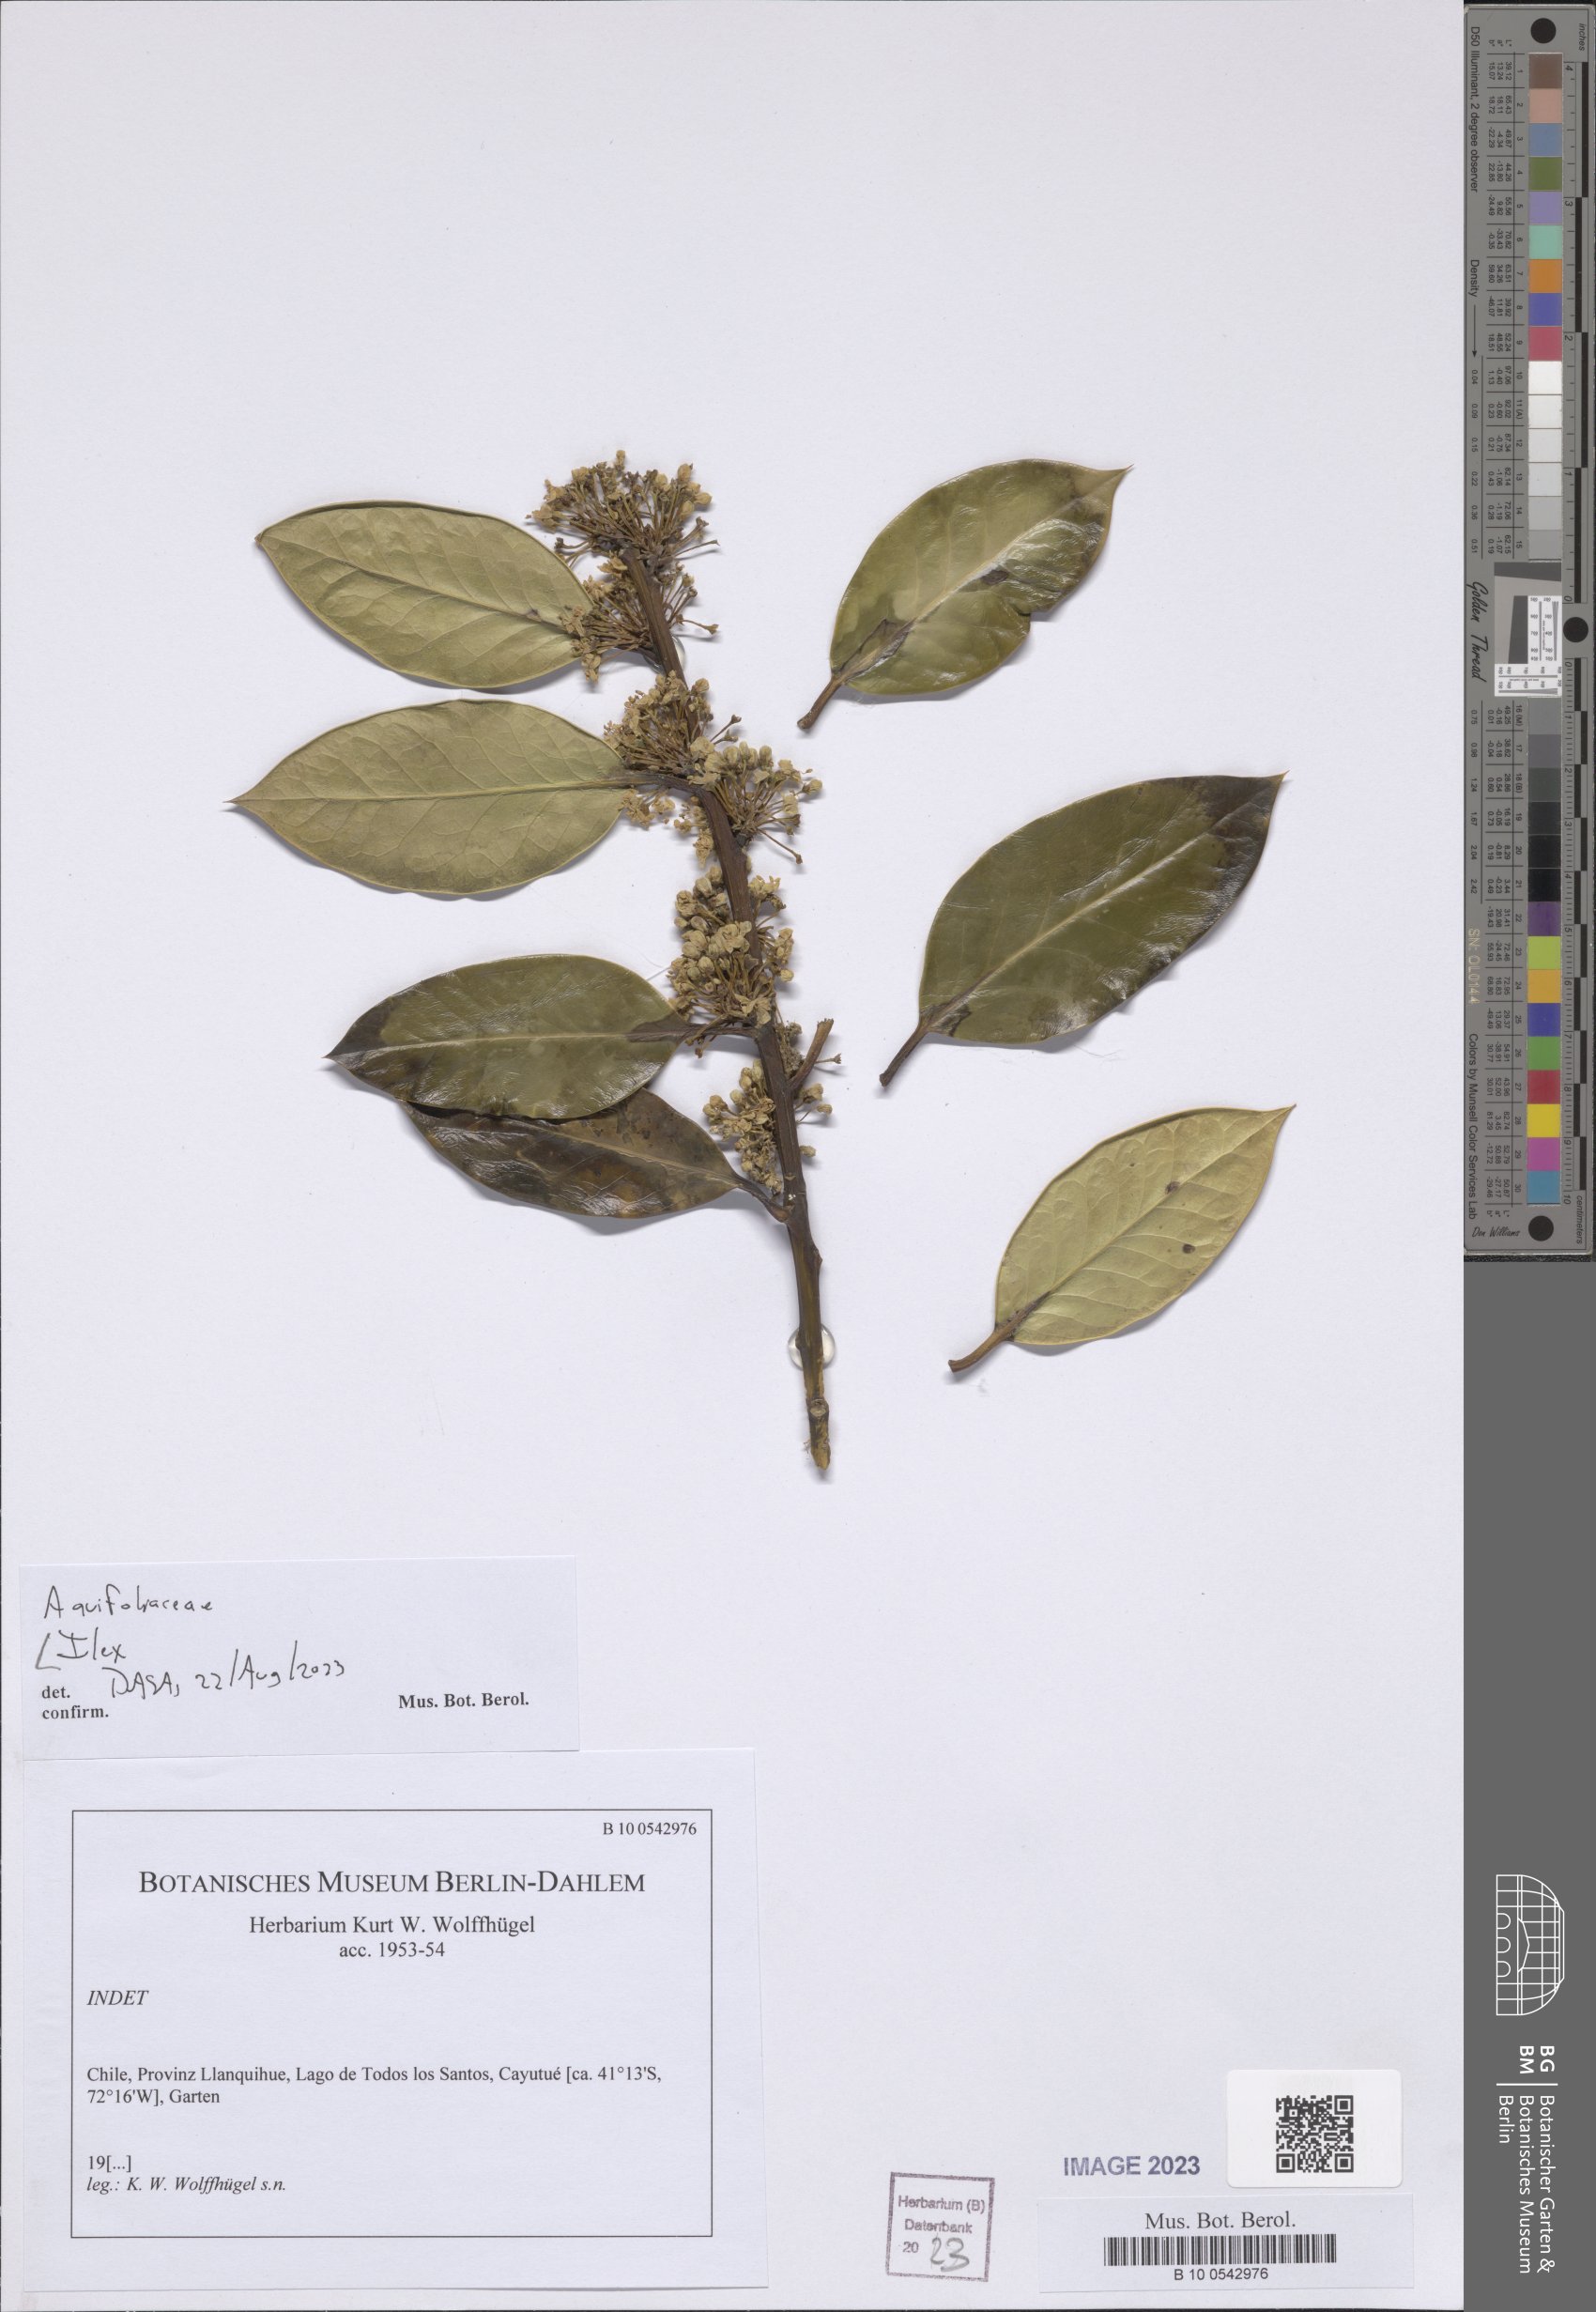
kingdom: Plantae
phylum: Tracheophyta
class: Magnoliopsida
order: Aquifoliales
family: Aquifoliaceae
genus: Ilex
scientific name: Ilex
